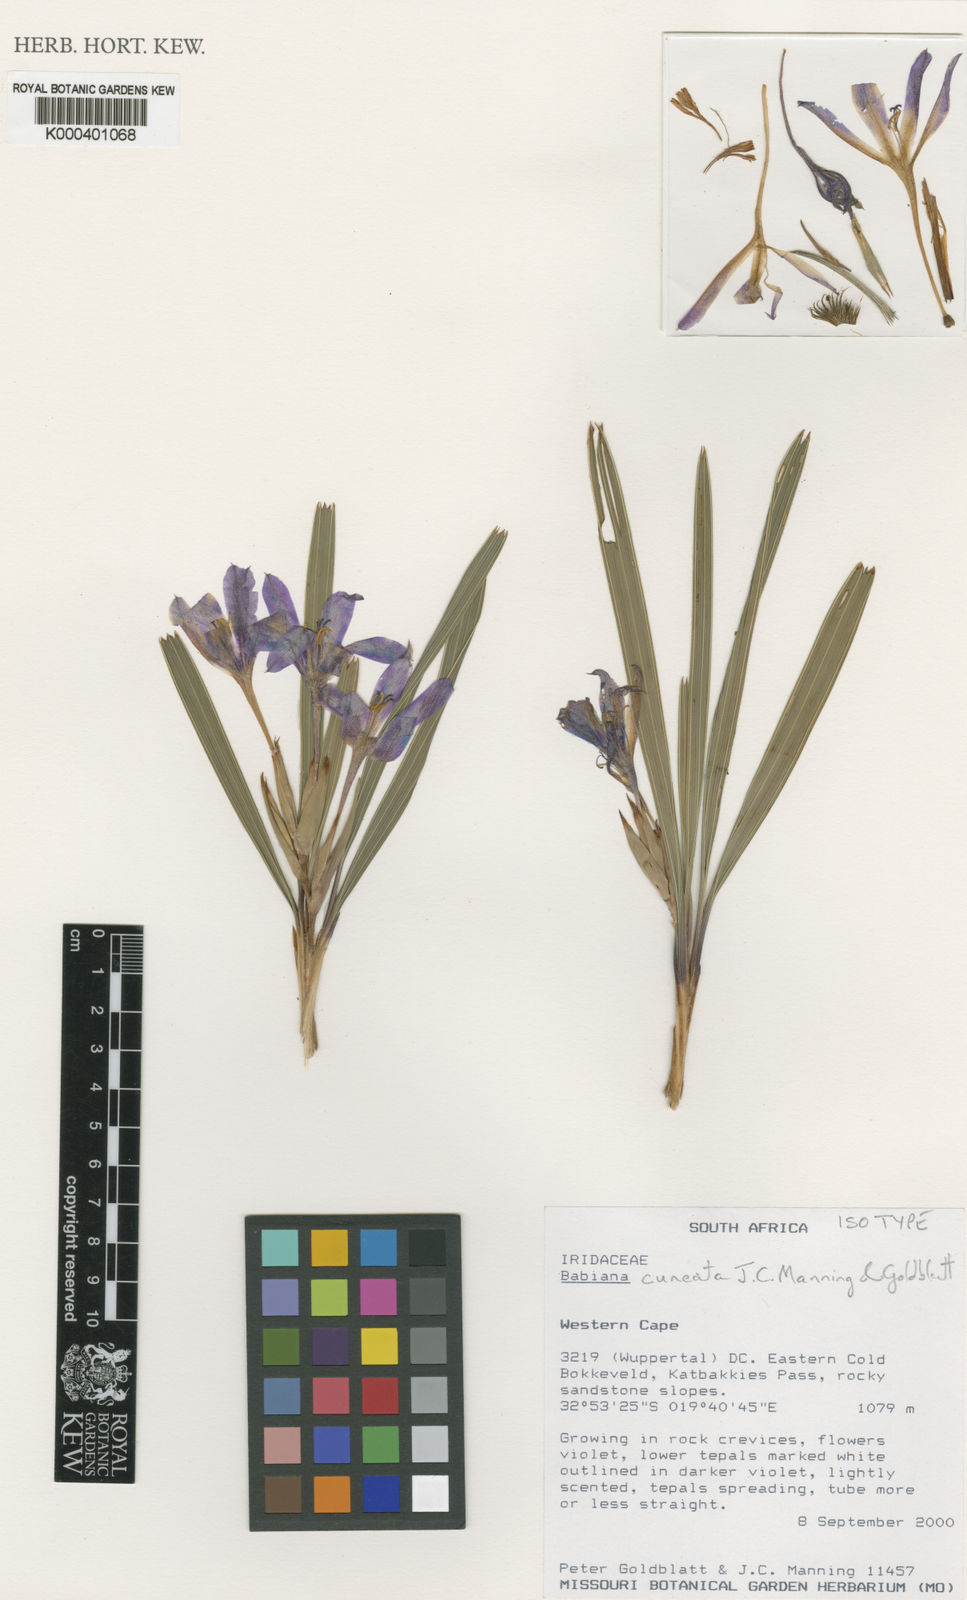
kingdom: Plantae
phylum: Tracheophyta
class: Liliopsida
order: Asparagales
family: Iridaceae
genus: Babiana
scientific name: Babiana cuneata
